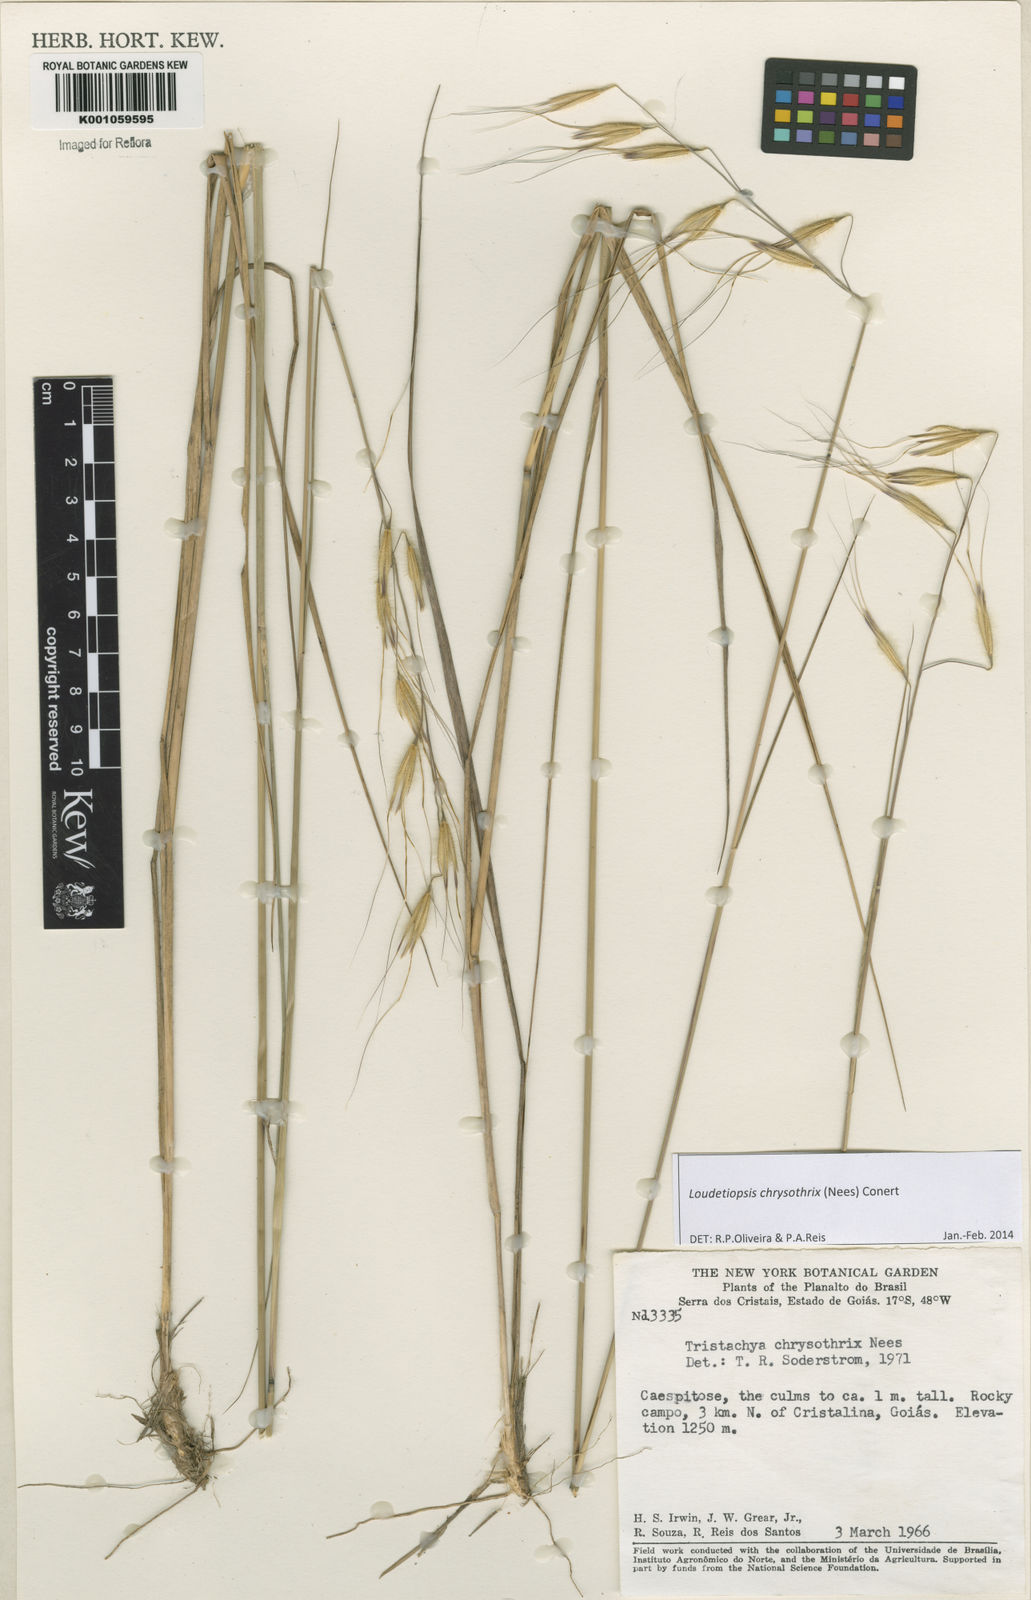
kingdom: Plantae
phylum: Tracheophyta
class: Liliopsida
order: Poales
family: Poaceae
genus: Loudetiopsis
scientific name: Loudetiopsis chrysothrix
